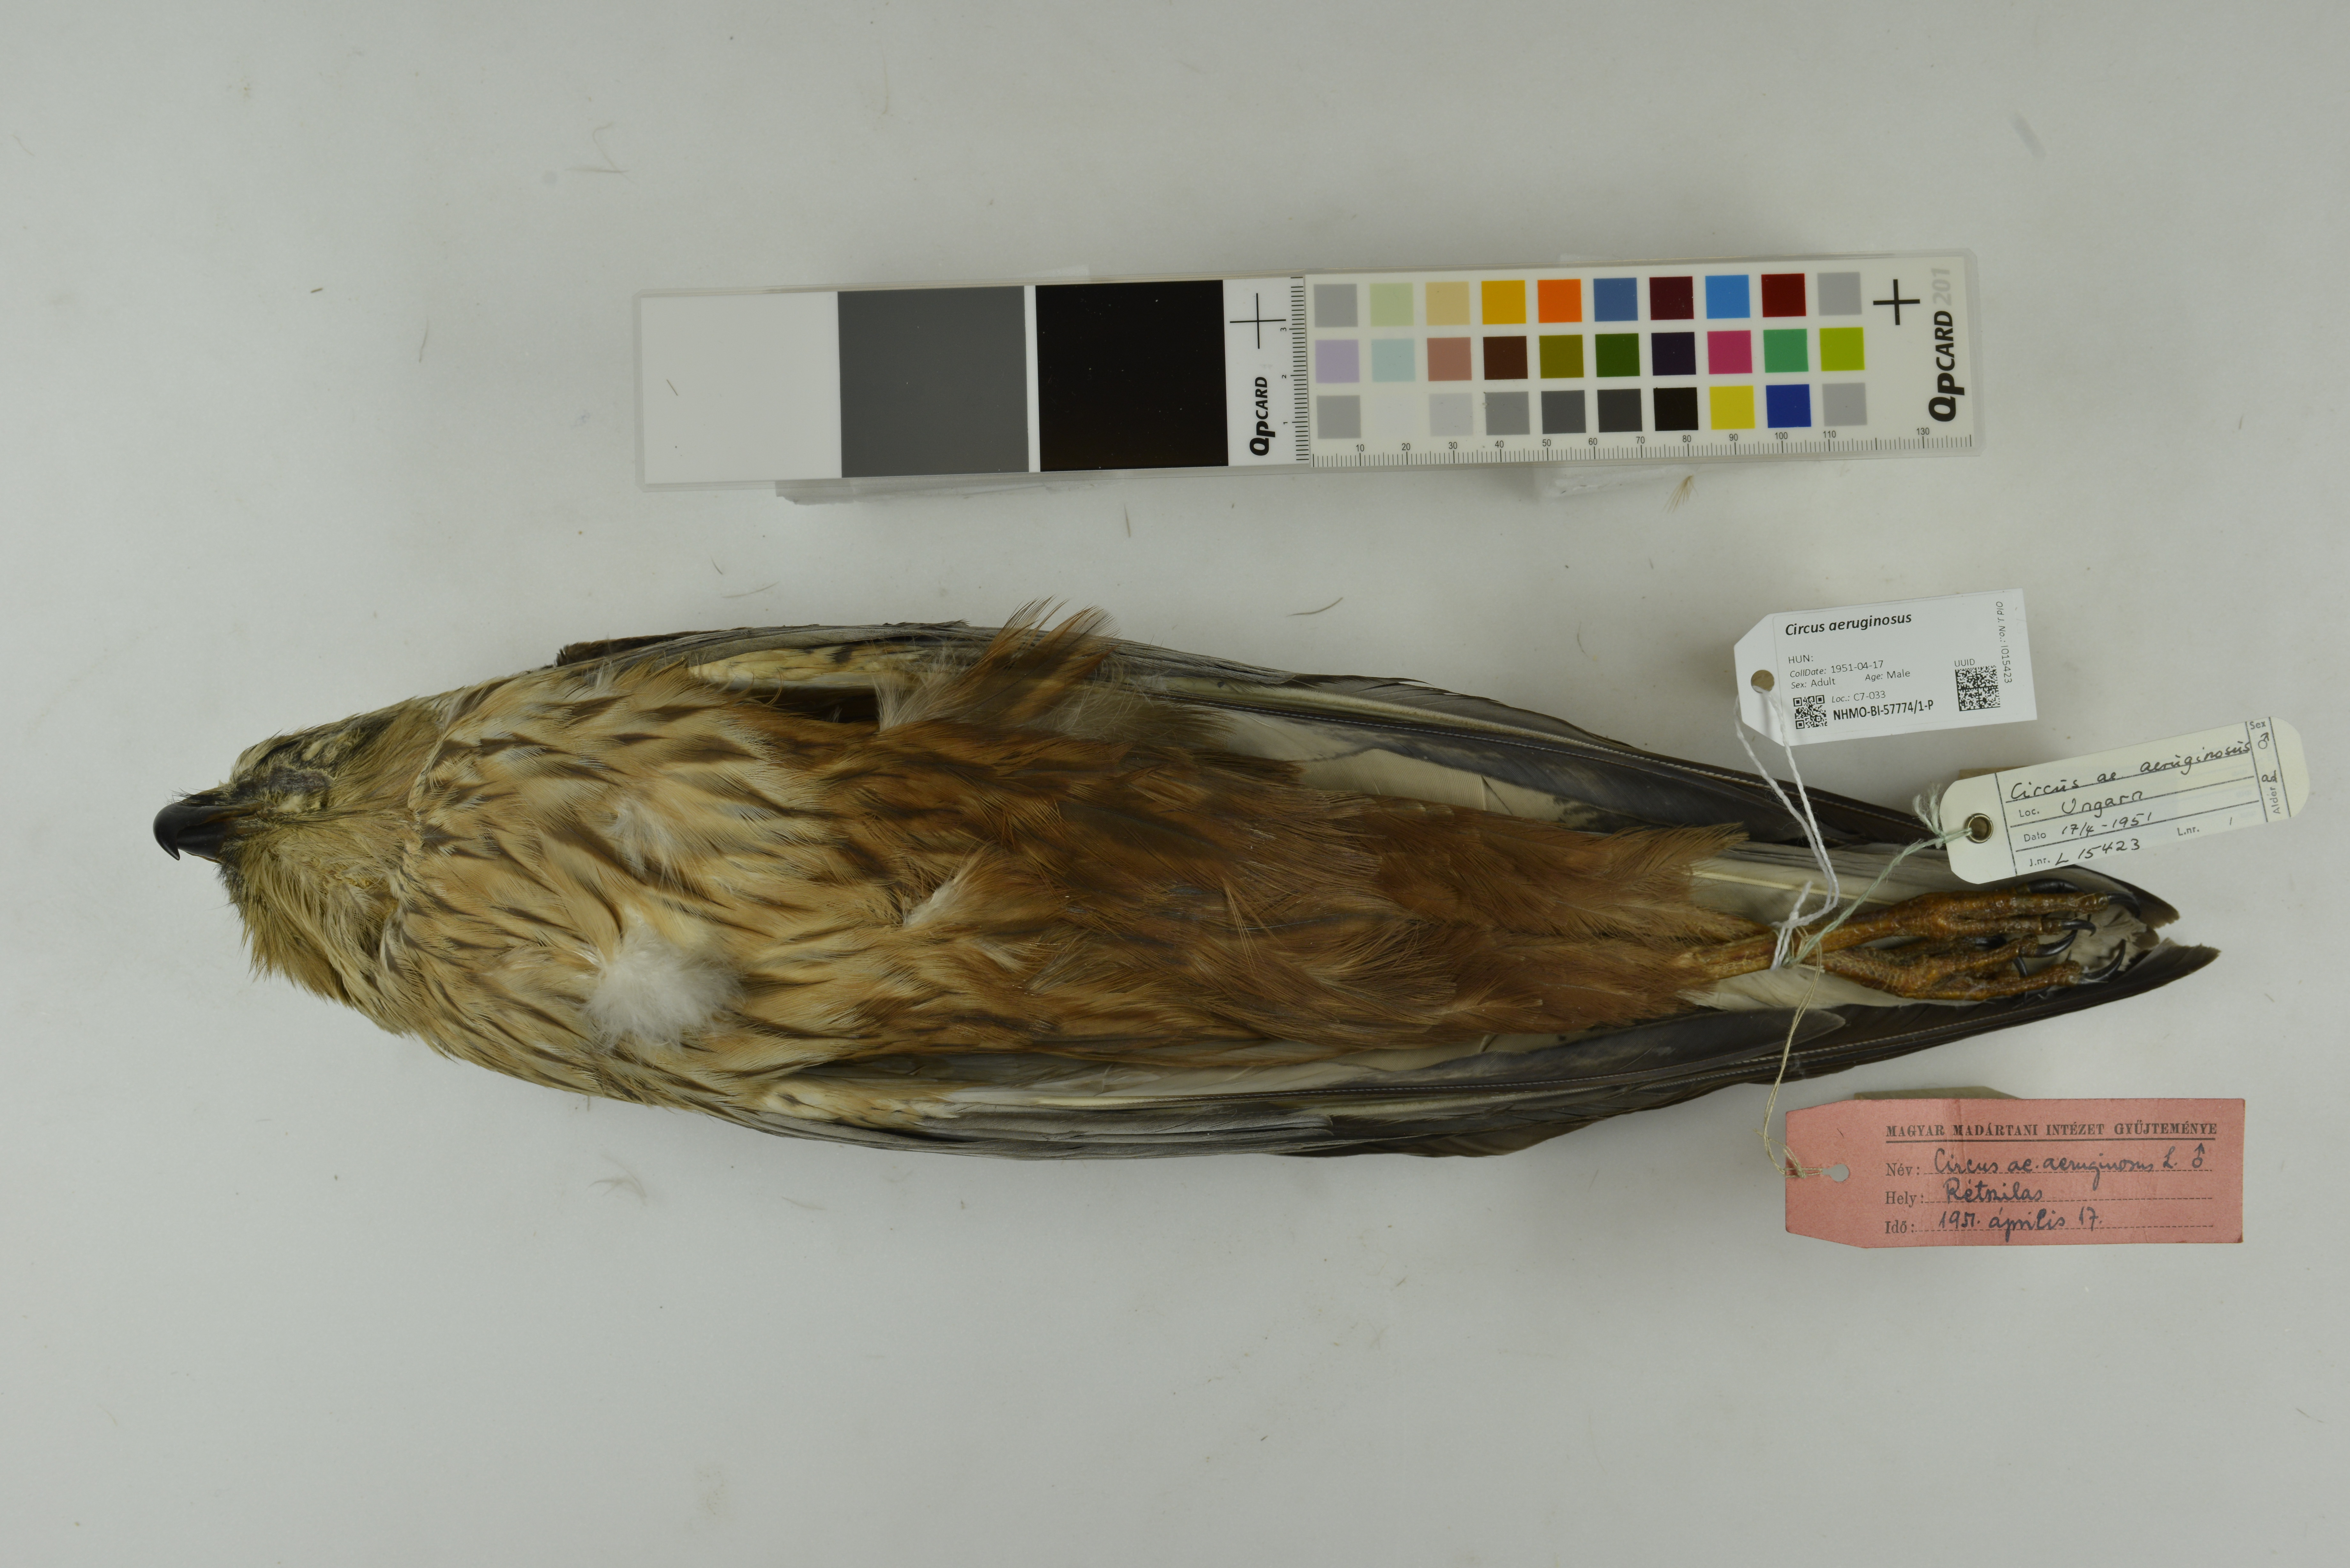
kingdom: Animalia
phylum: Chordata
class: Aves
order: Accipitriformes
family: Accipitridae
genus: Circus
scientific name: Circus aeruginosus
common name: Western marsh harrier
